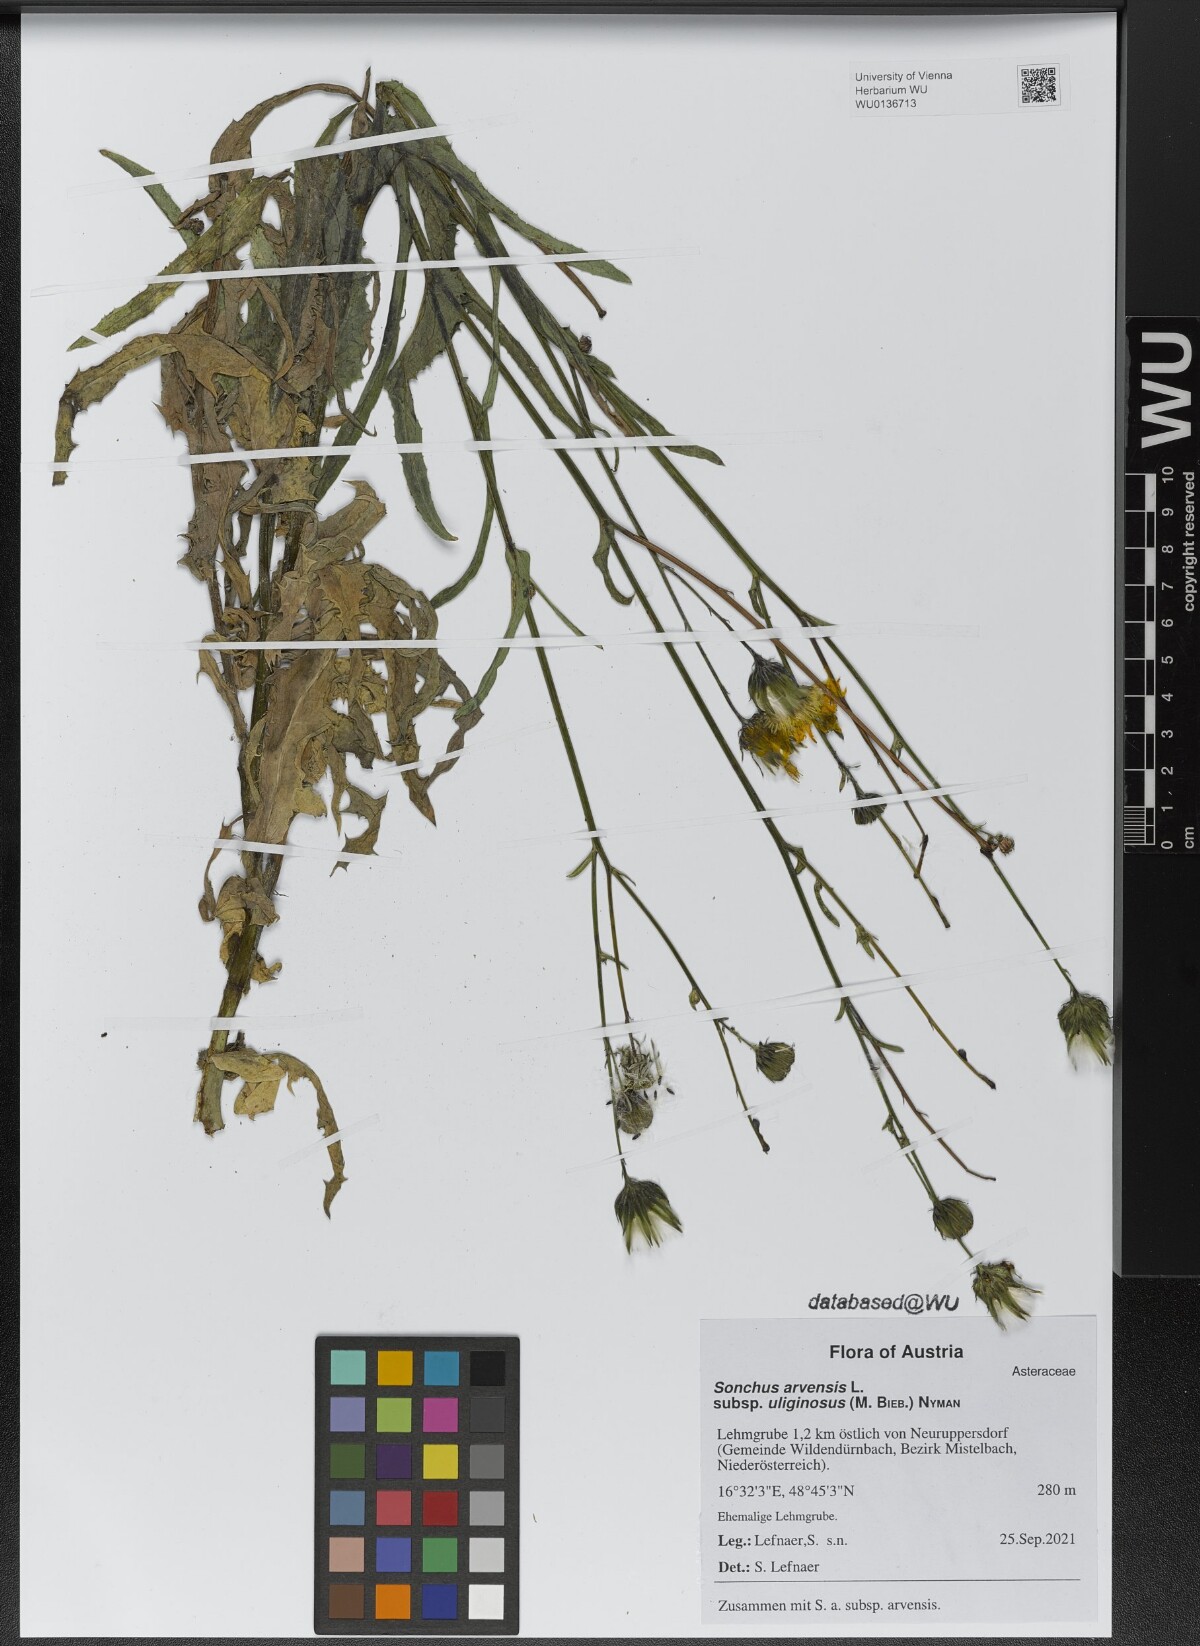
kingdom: Plantae
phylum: Tracheophyta
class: Magnoliopsida
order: Asterales
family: Asteraceae
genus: Sonchus
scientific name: Sonchus arvensis
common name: Perennial sow-thistle
